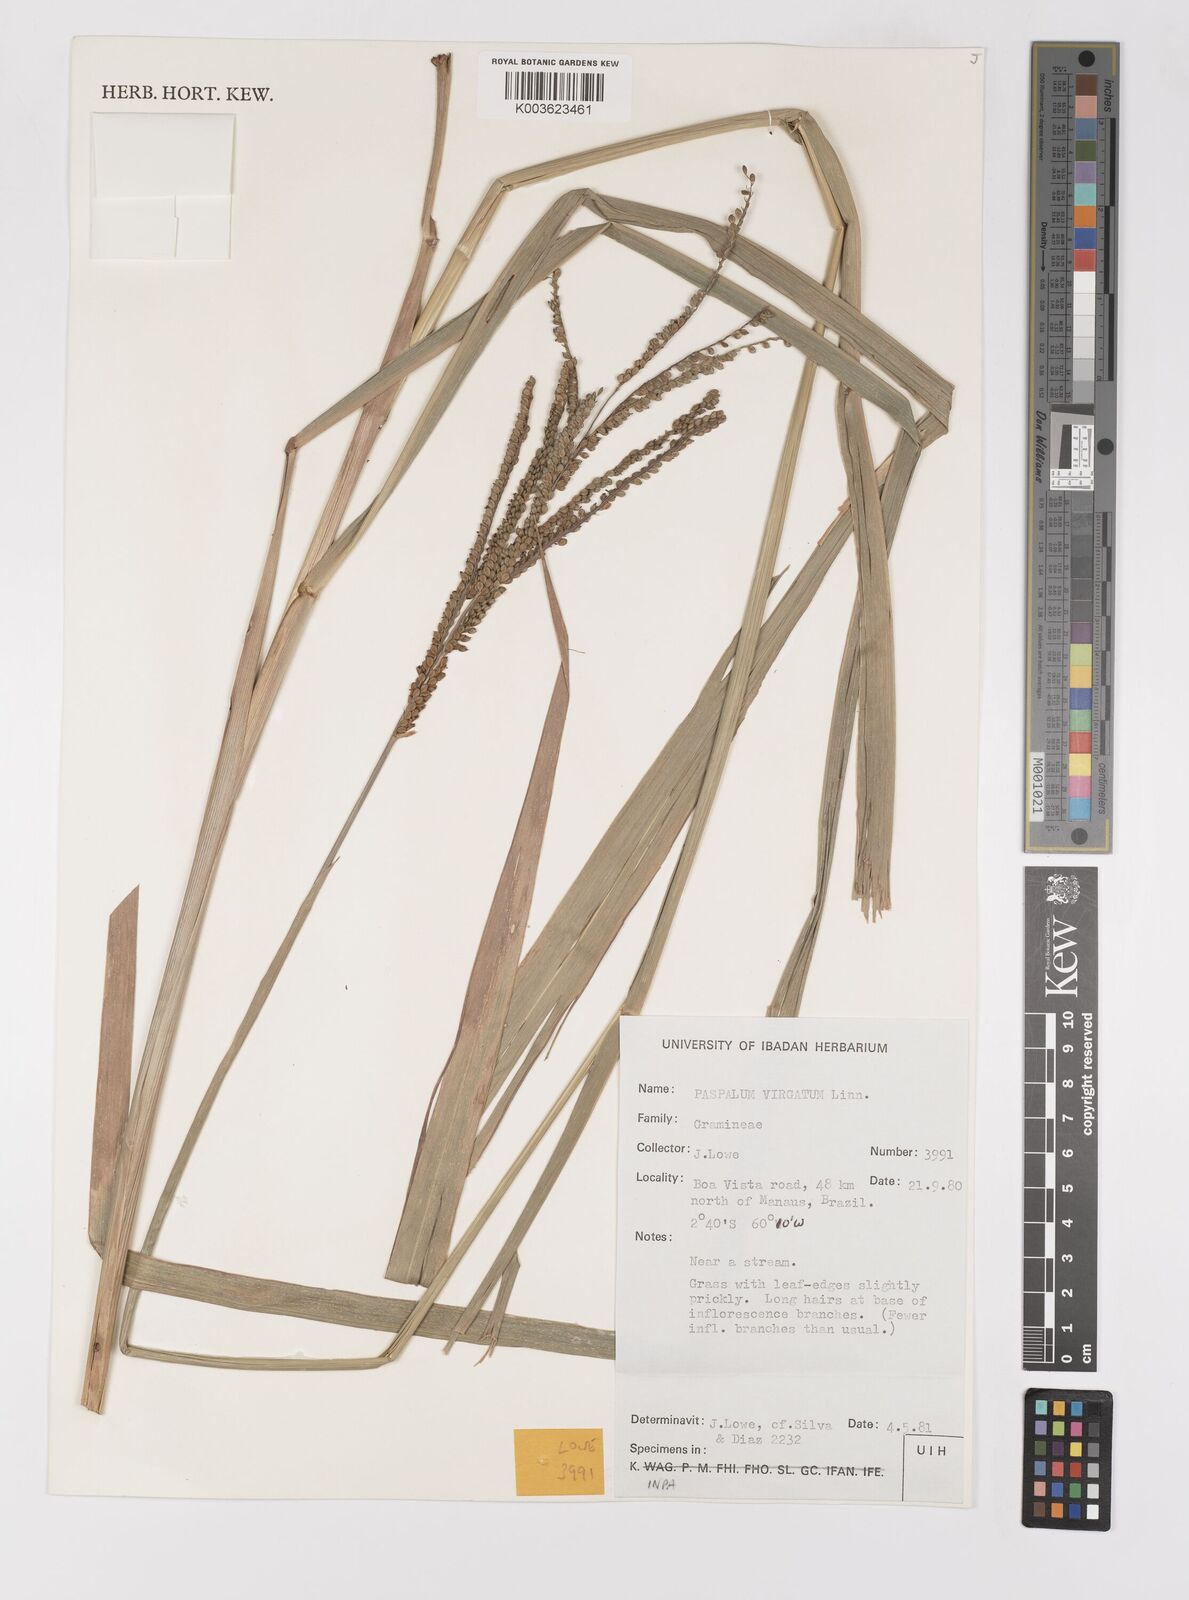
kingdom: Plantae
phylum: Tracheophyta
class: Liliopsida
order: Poales
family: Poaceae
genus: Paspalum
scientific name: Paspalum virgatum
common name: Talquezal
